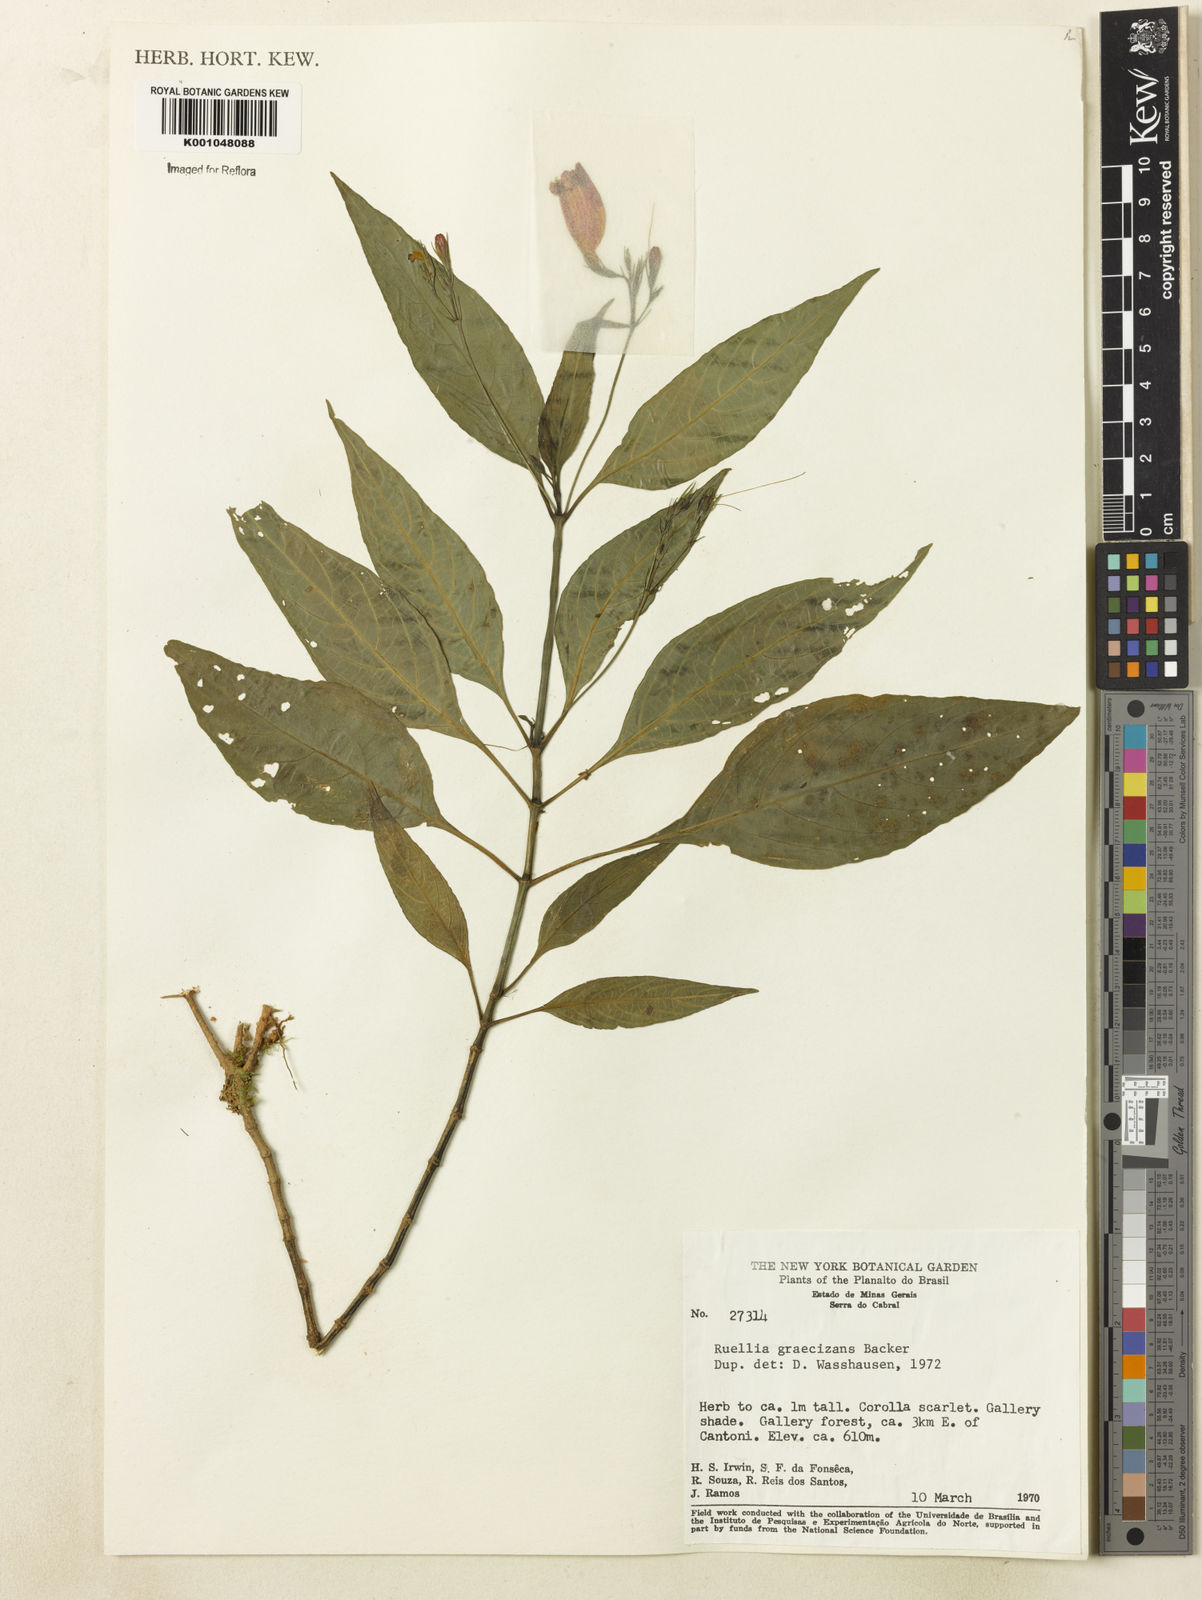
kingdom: Plantae
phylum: Tracheophyta
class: Magnoliopsida
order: Lamiales
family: Acanthaceae
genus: Ruellia
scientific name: Ruellia brevifolia
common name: Tropical wild petunia
